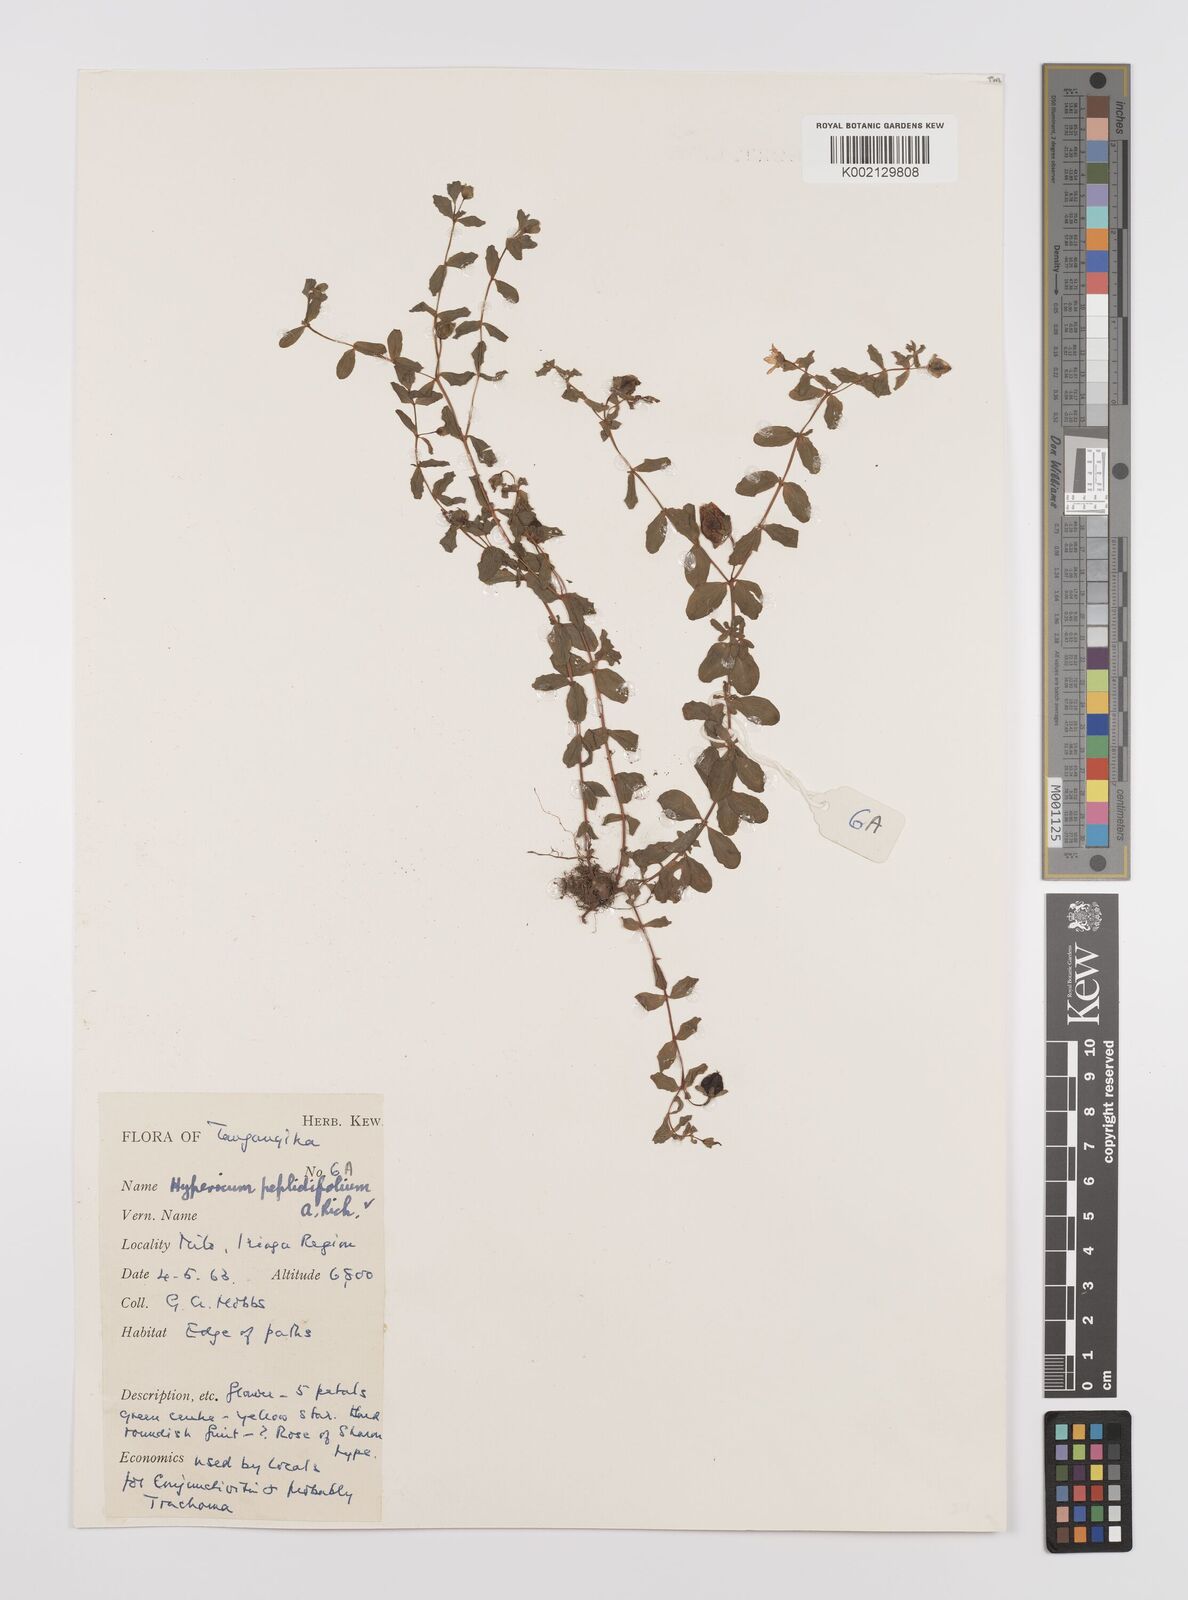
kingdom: Plantae
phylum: Tracheophyta
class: Magnoliopsida
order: Malpighiales
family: Hypericaceae
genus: Hypericum
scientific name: Hypericum peplidifolium
